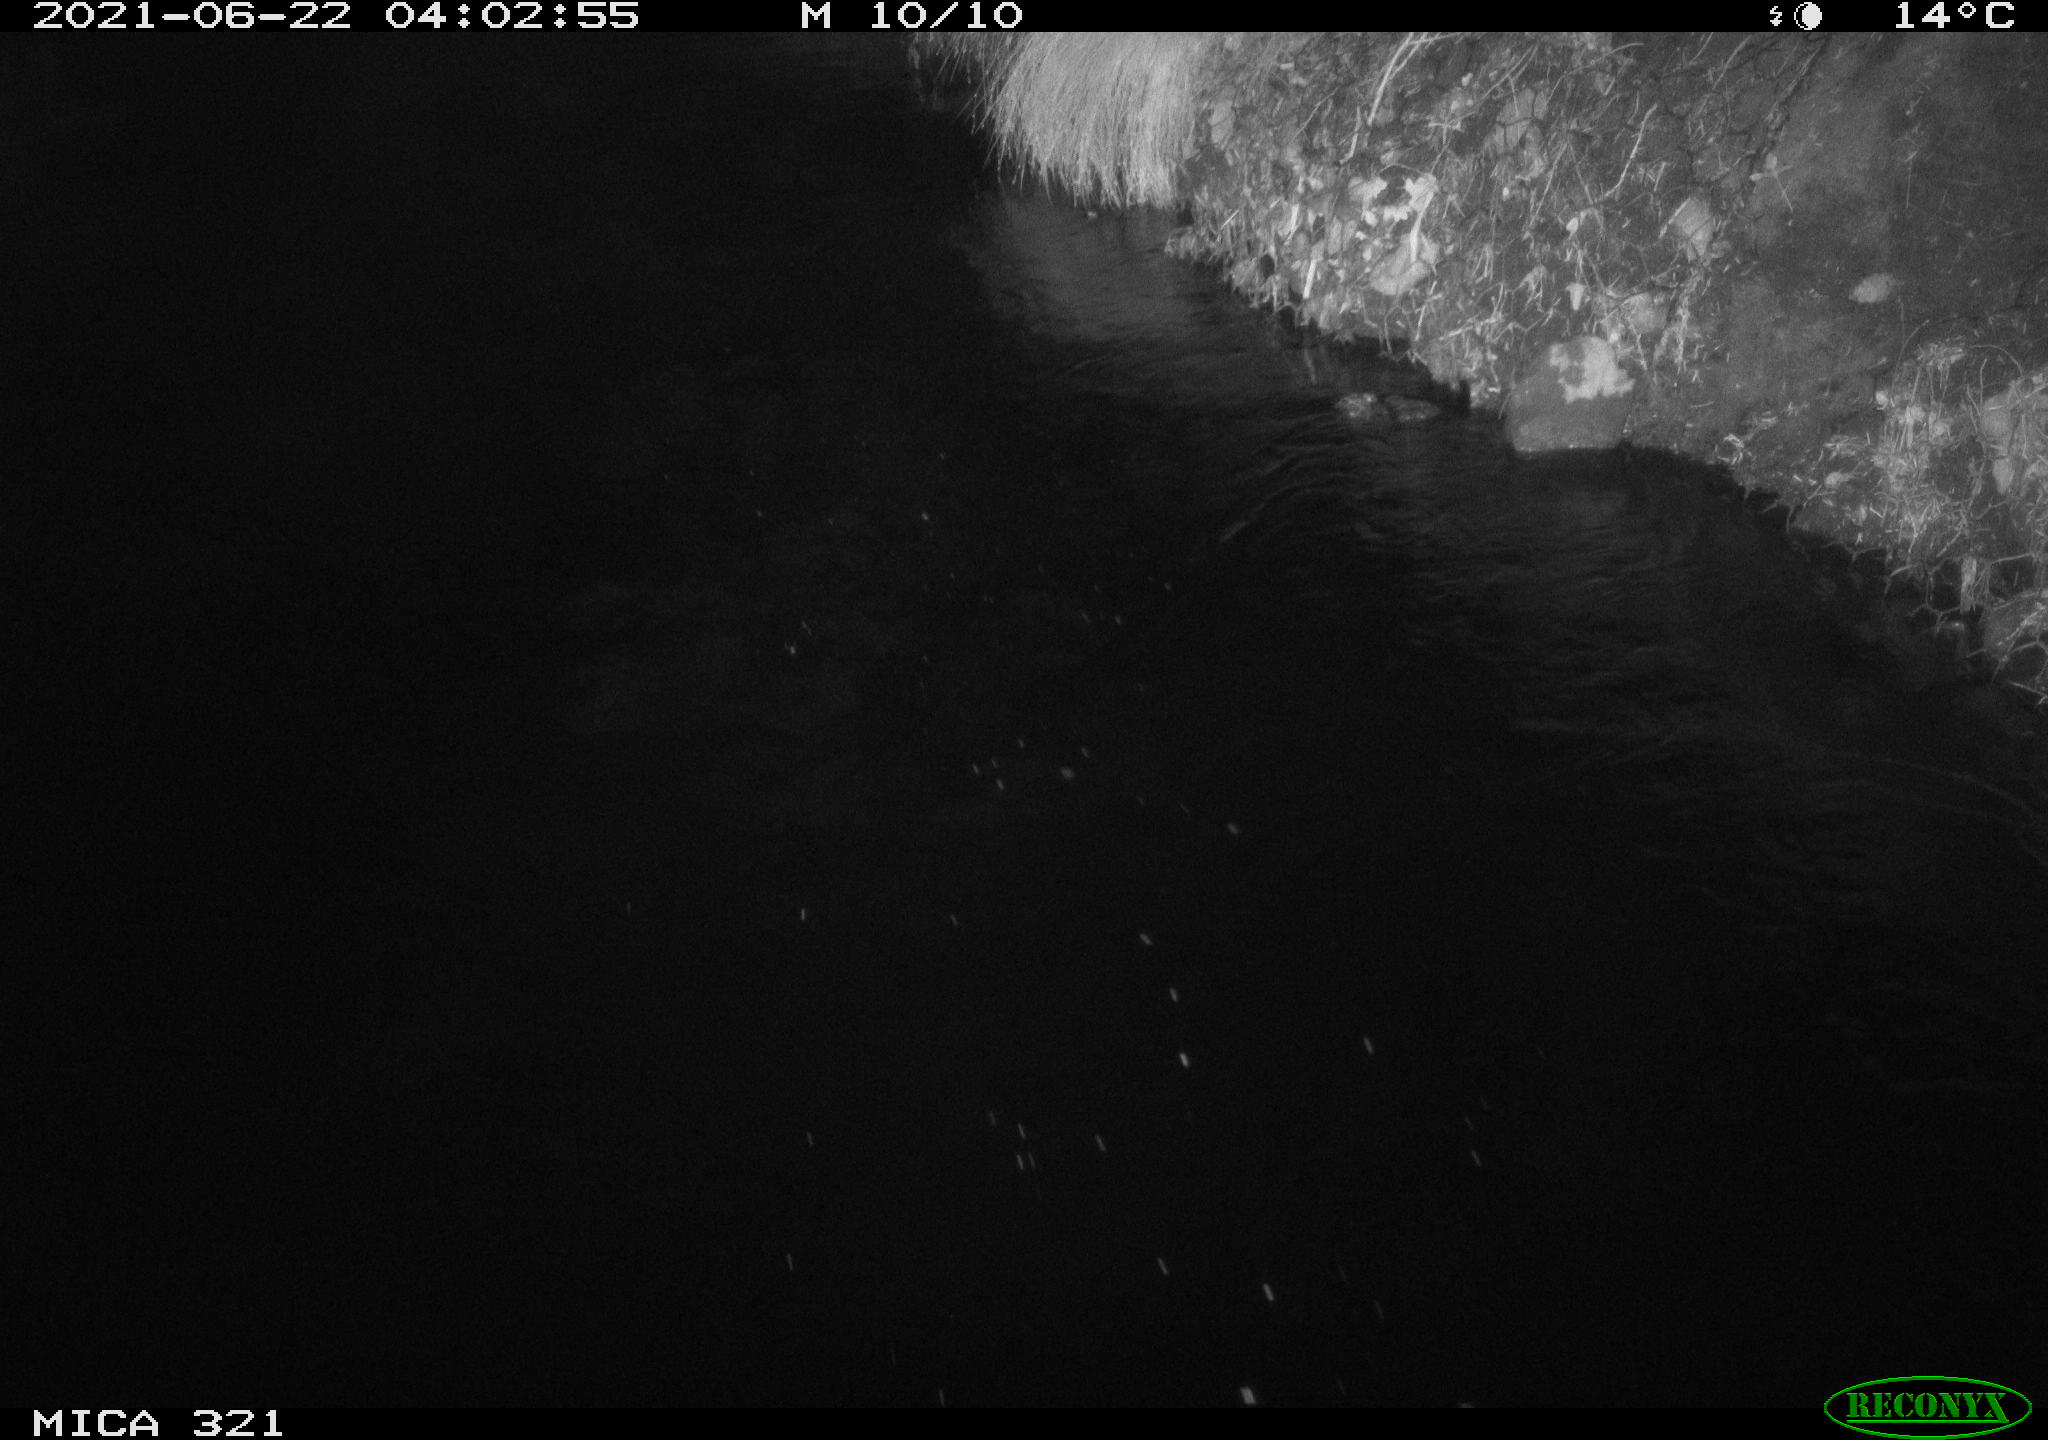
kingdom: Animalia
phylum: Chordata
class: Aves
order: Anseriformes
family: Anatidae
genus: Anas
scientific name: Anas platyrhynchos
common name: Mallard
